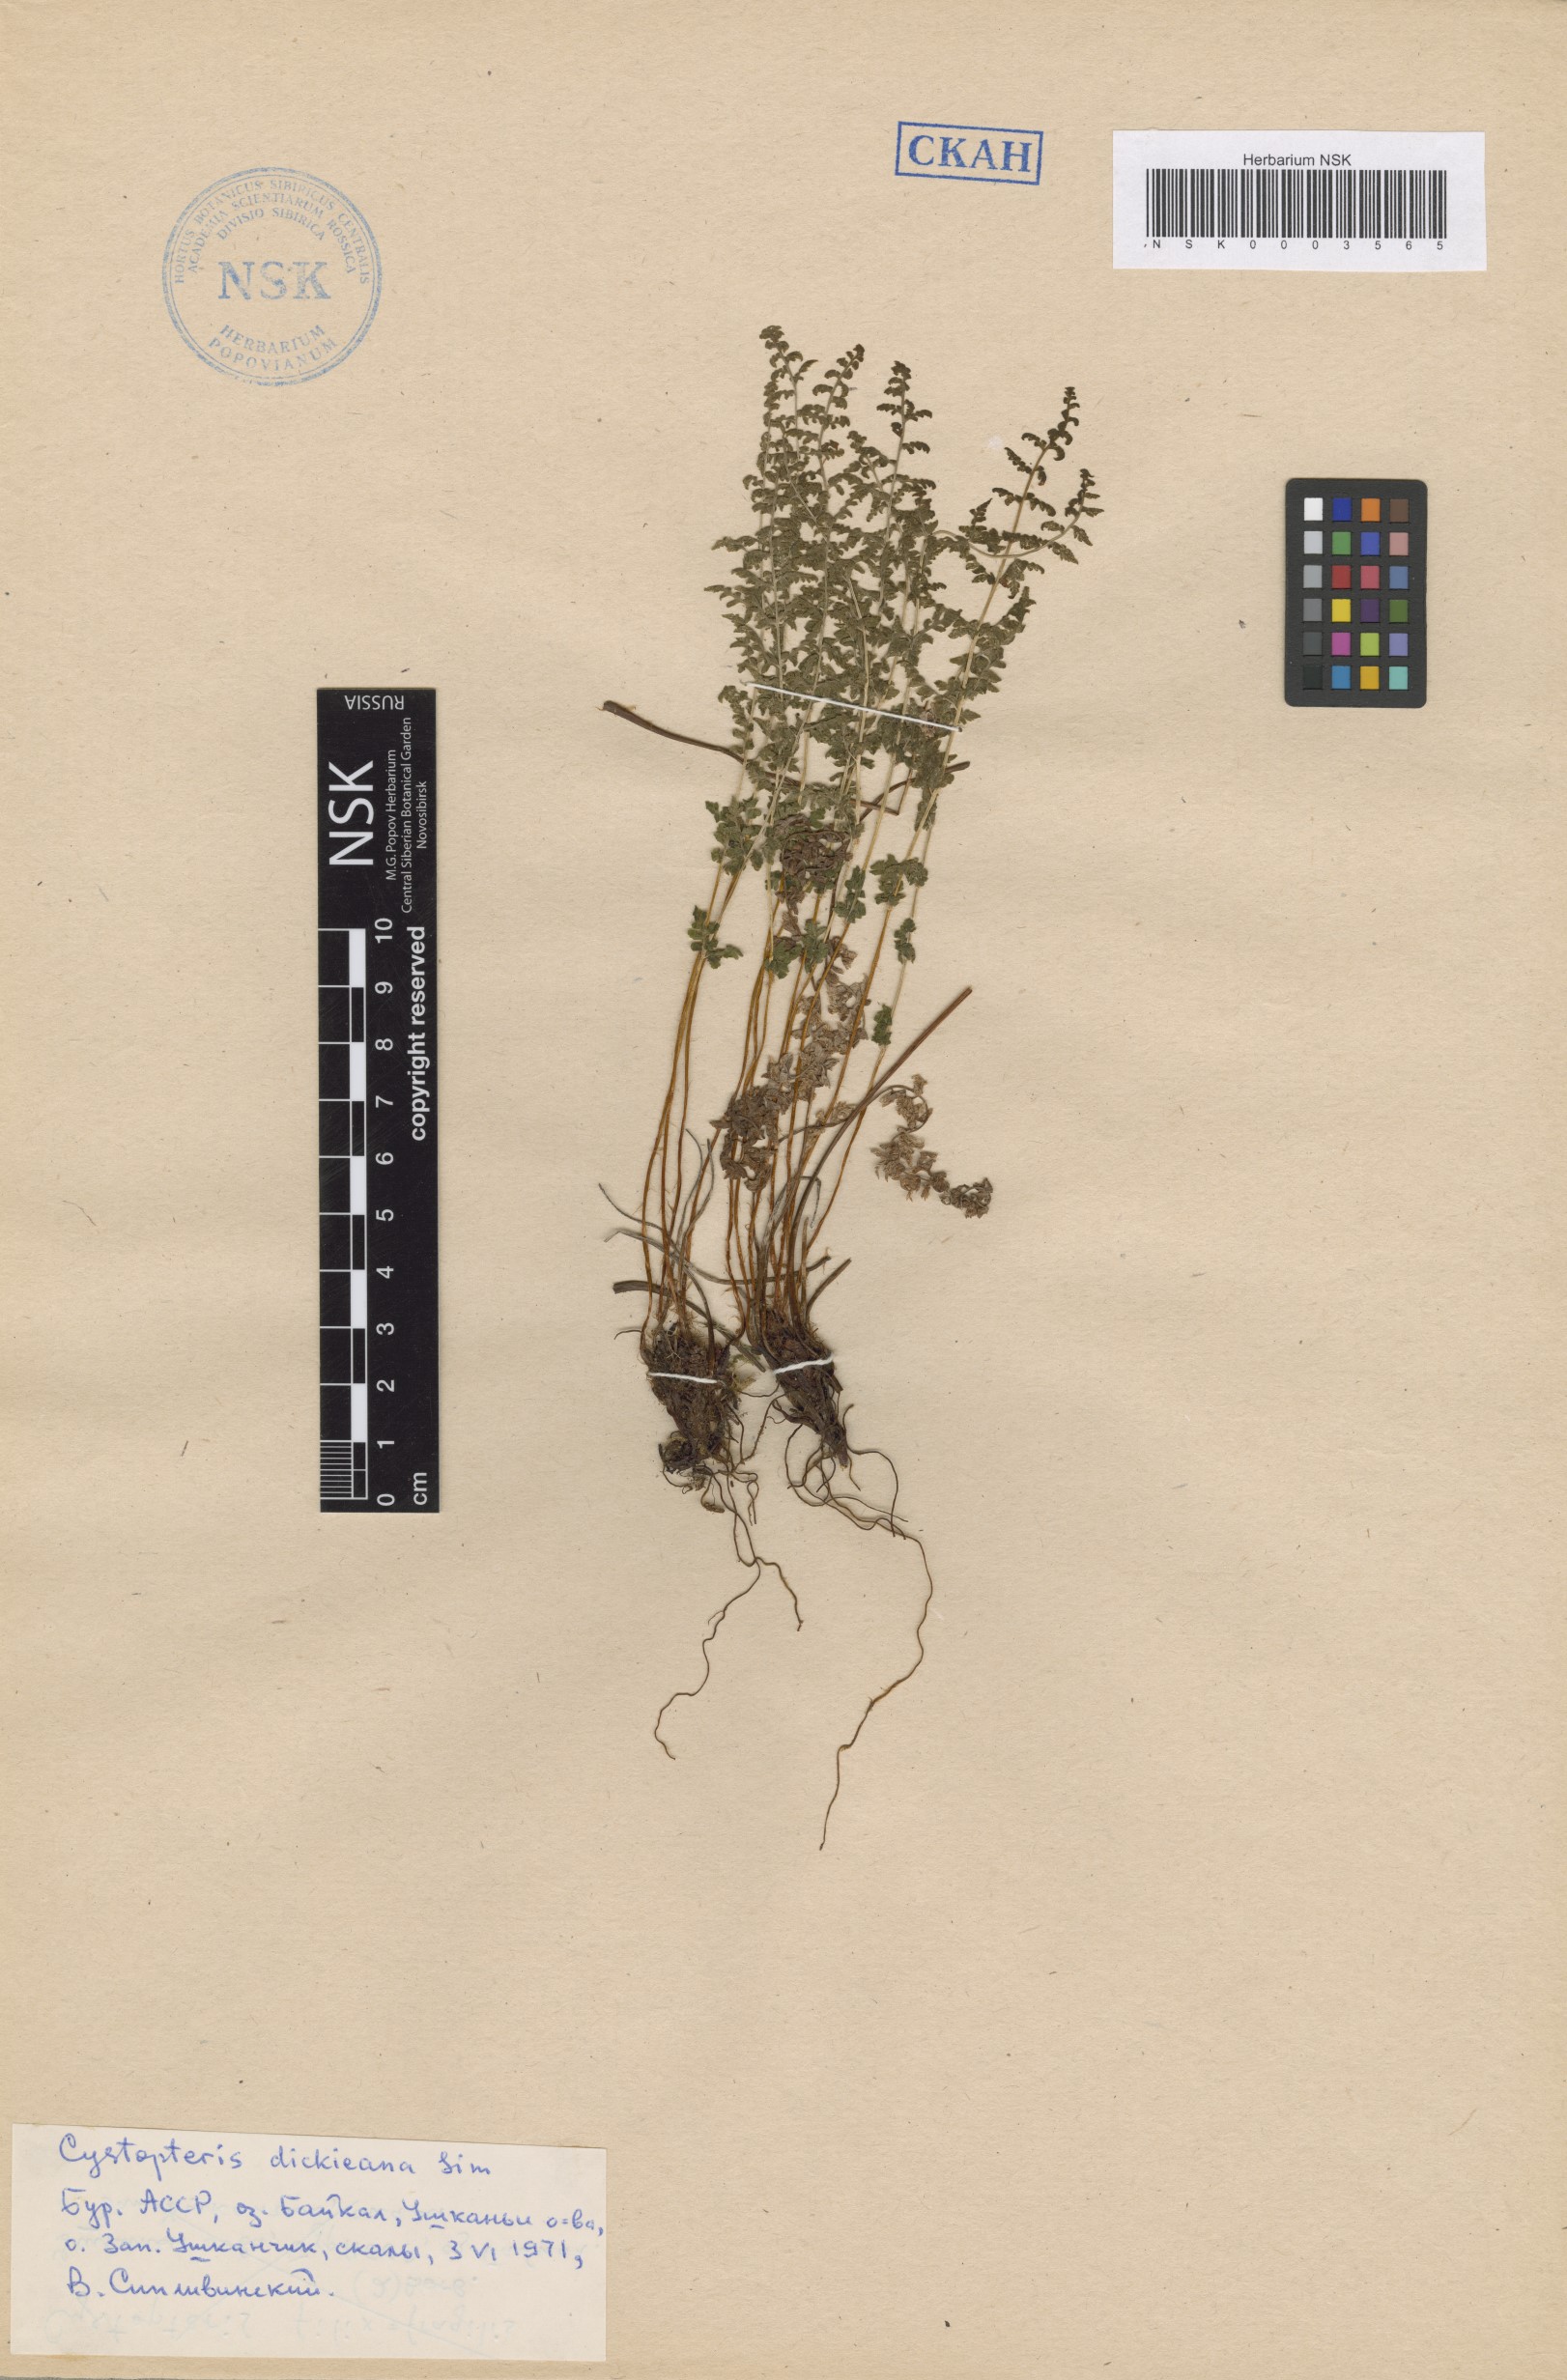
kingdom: Plantae
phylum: Tracheophyta
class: Polypodiopsida
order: Polypodiales
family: Cystopteridaceae
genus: Cystopteris
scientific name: Cystopteris dickieana
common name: Dickie's bladder-fern
